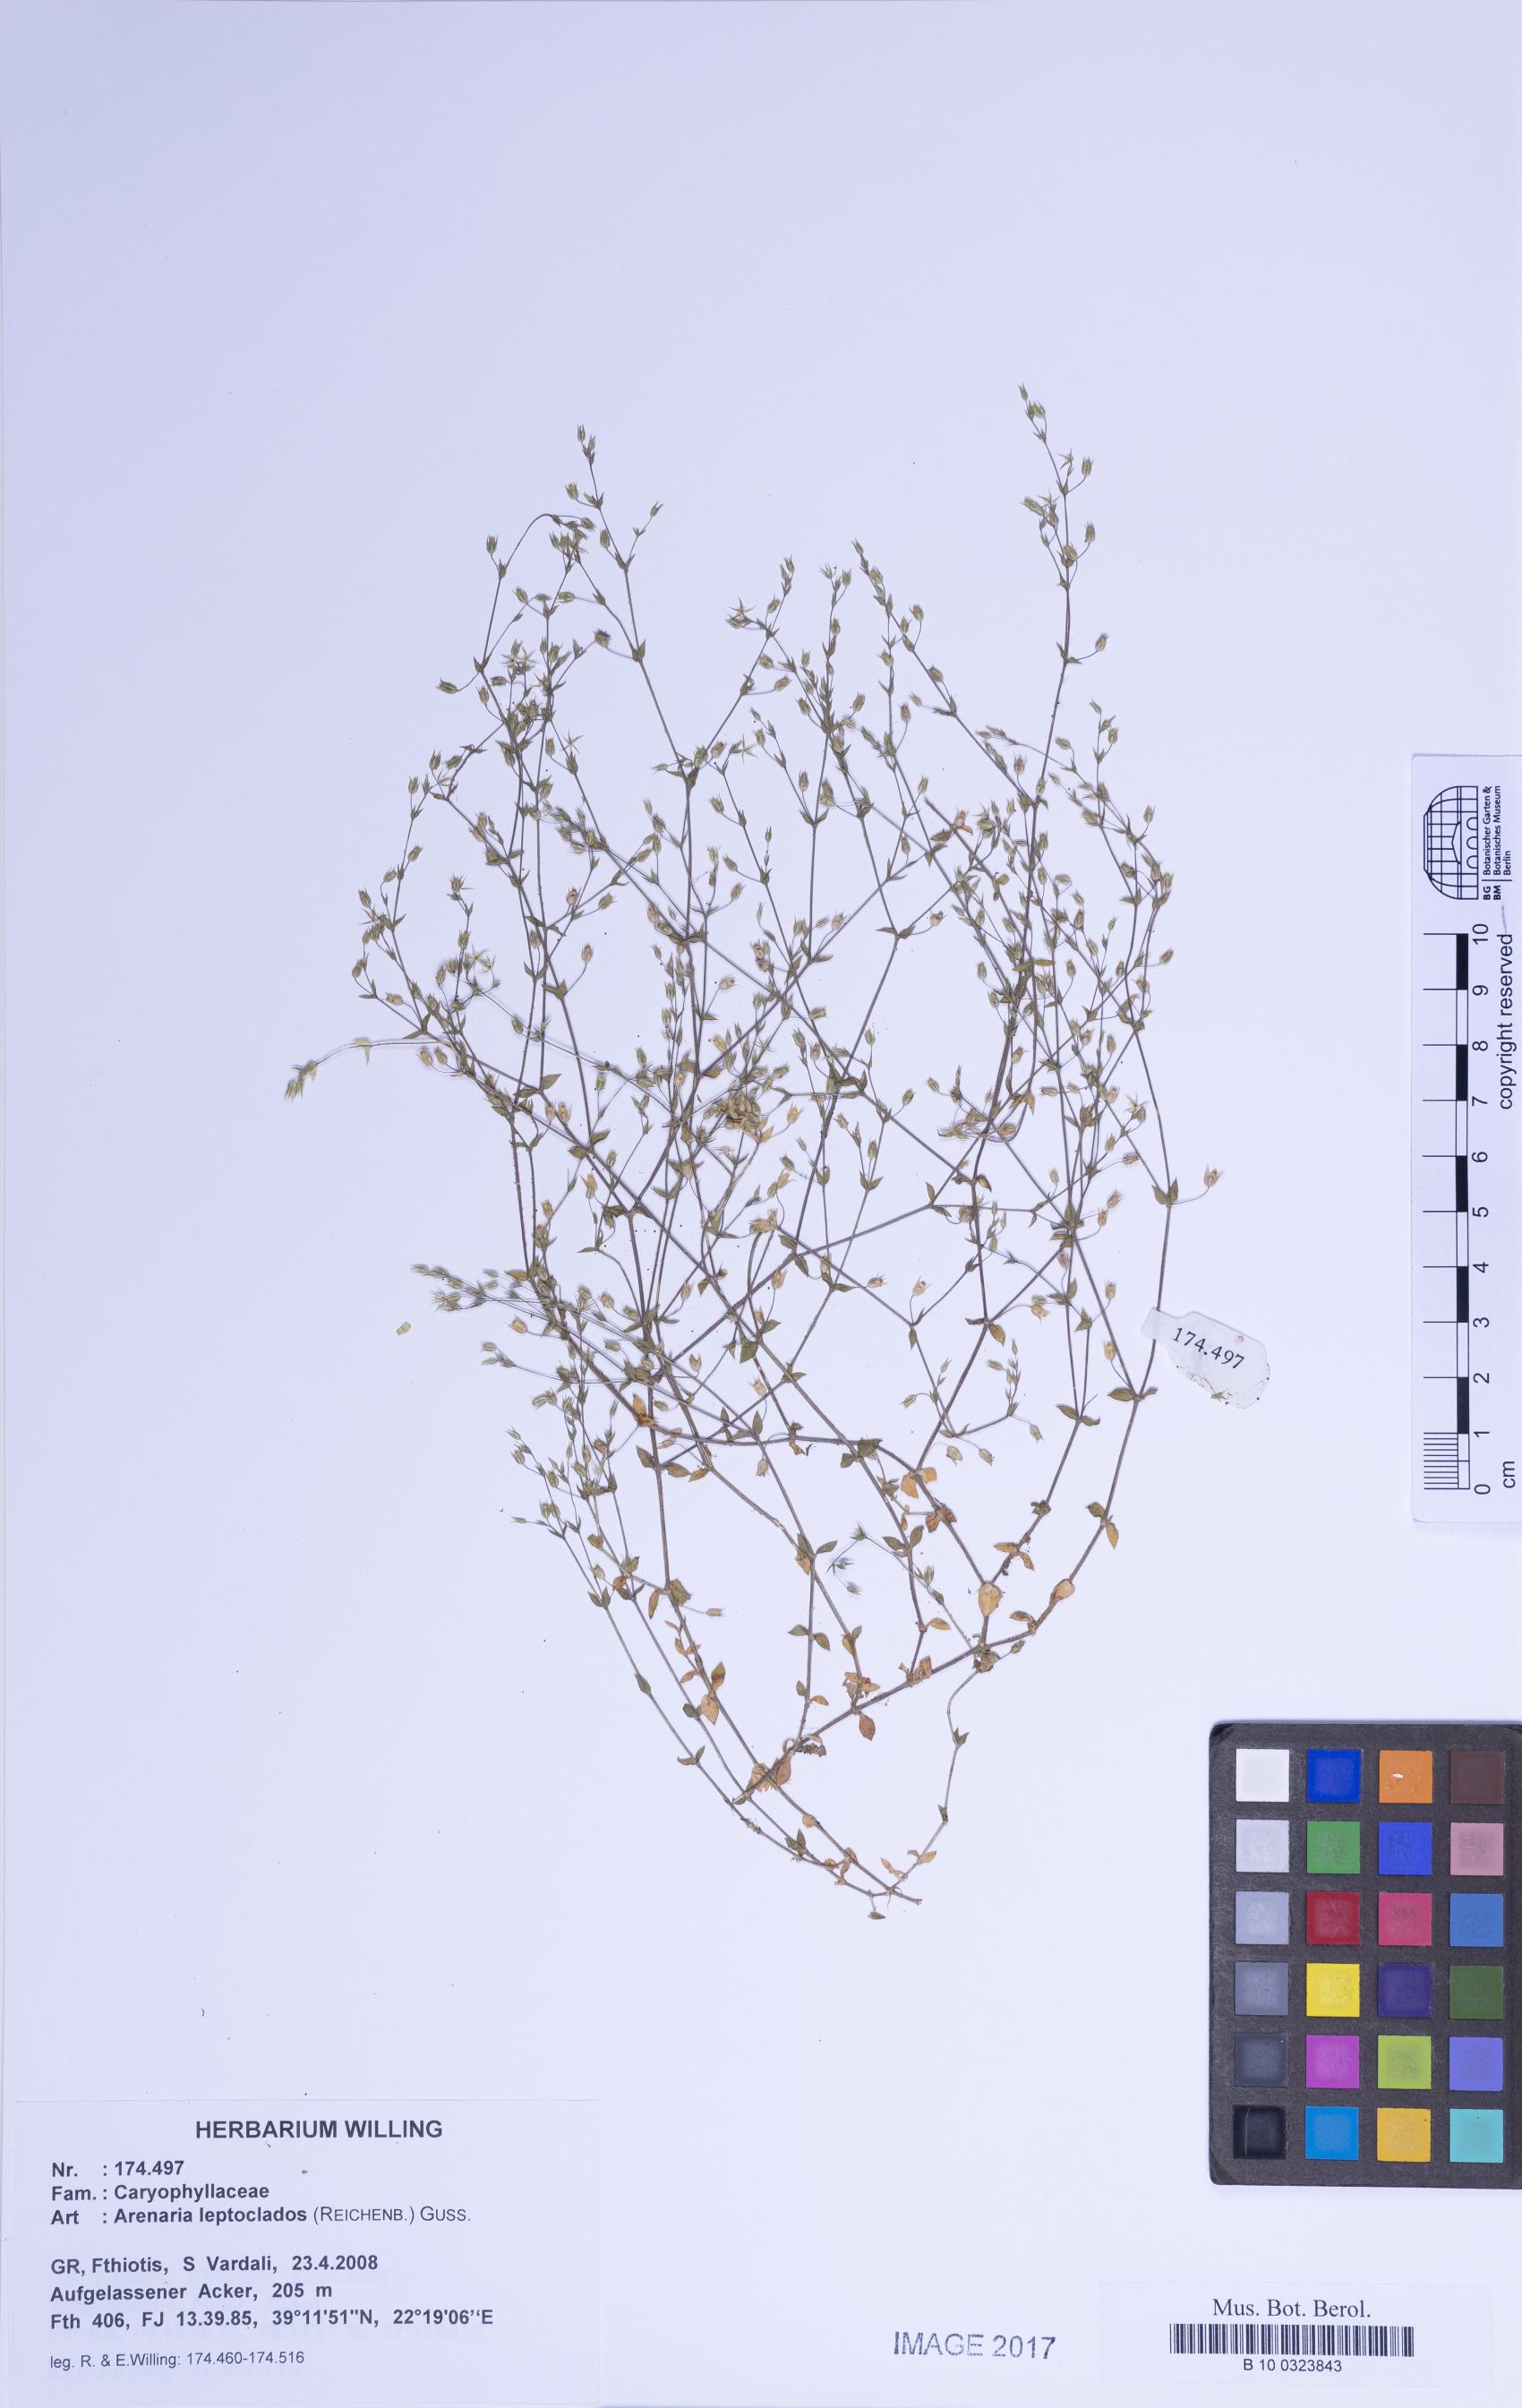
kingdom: Plantae
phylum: Tracheophyta
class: Magnoliopsida
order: Caryophyllales
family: Caryophyllaceae
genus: Arenaria
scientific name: Arenaria leptoclados
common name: Thyme-leaved sandwort
